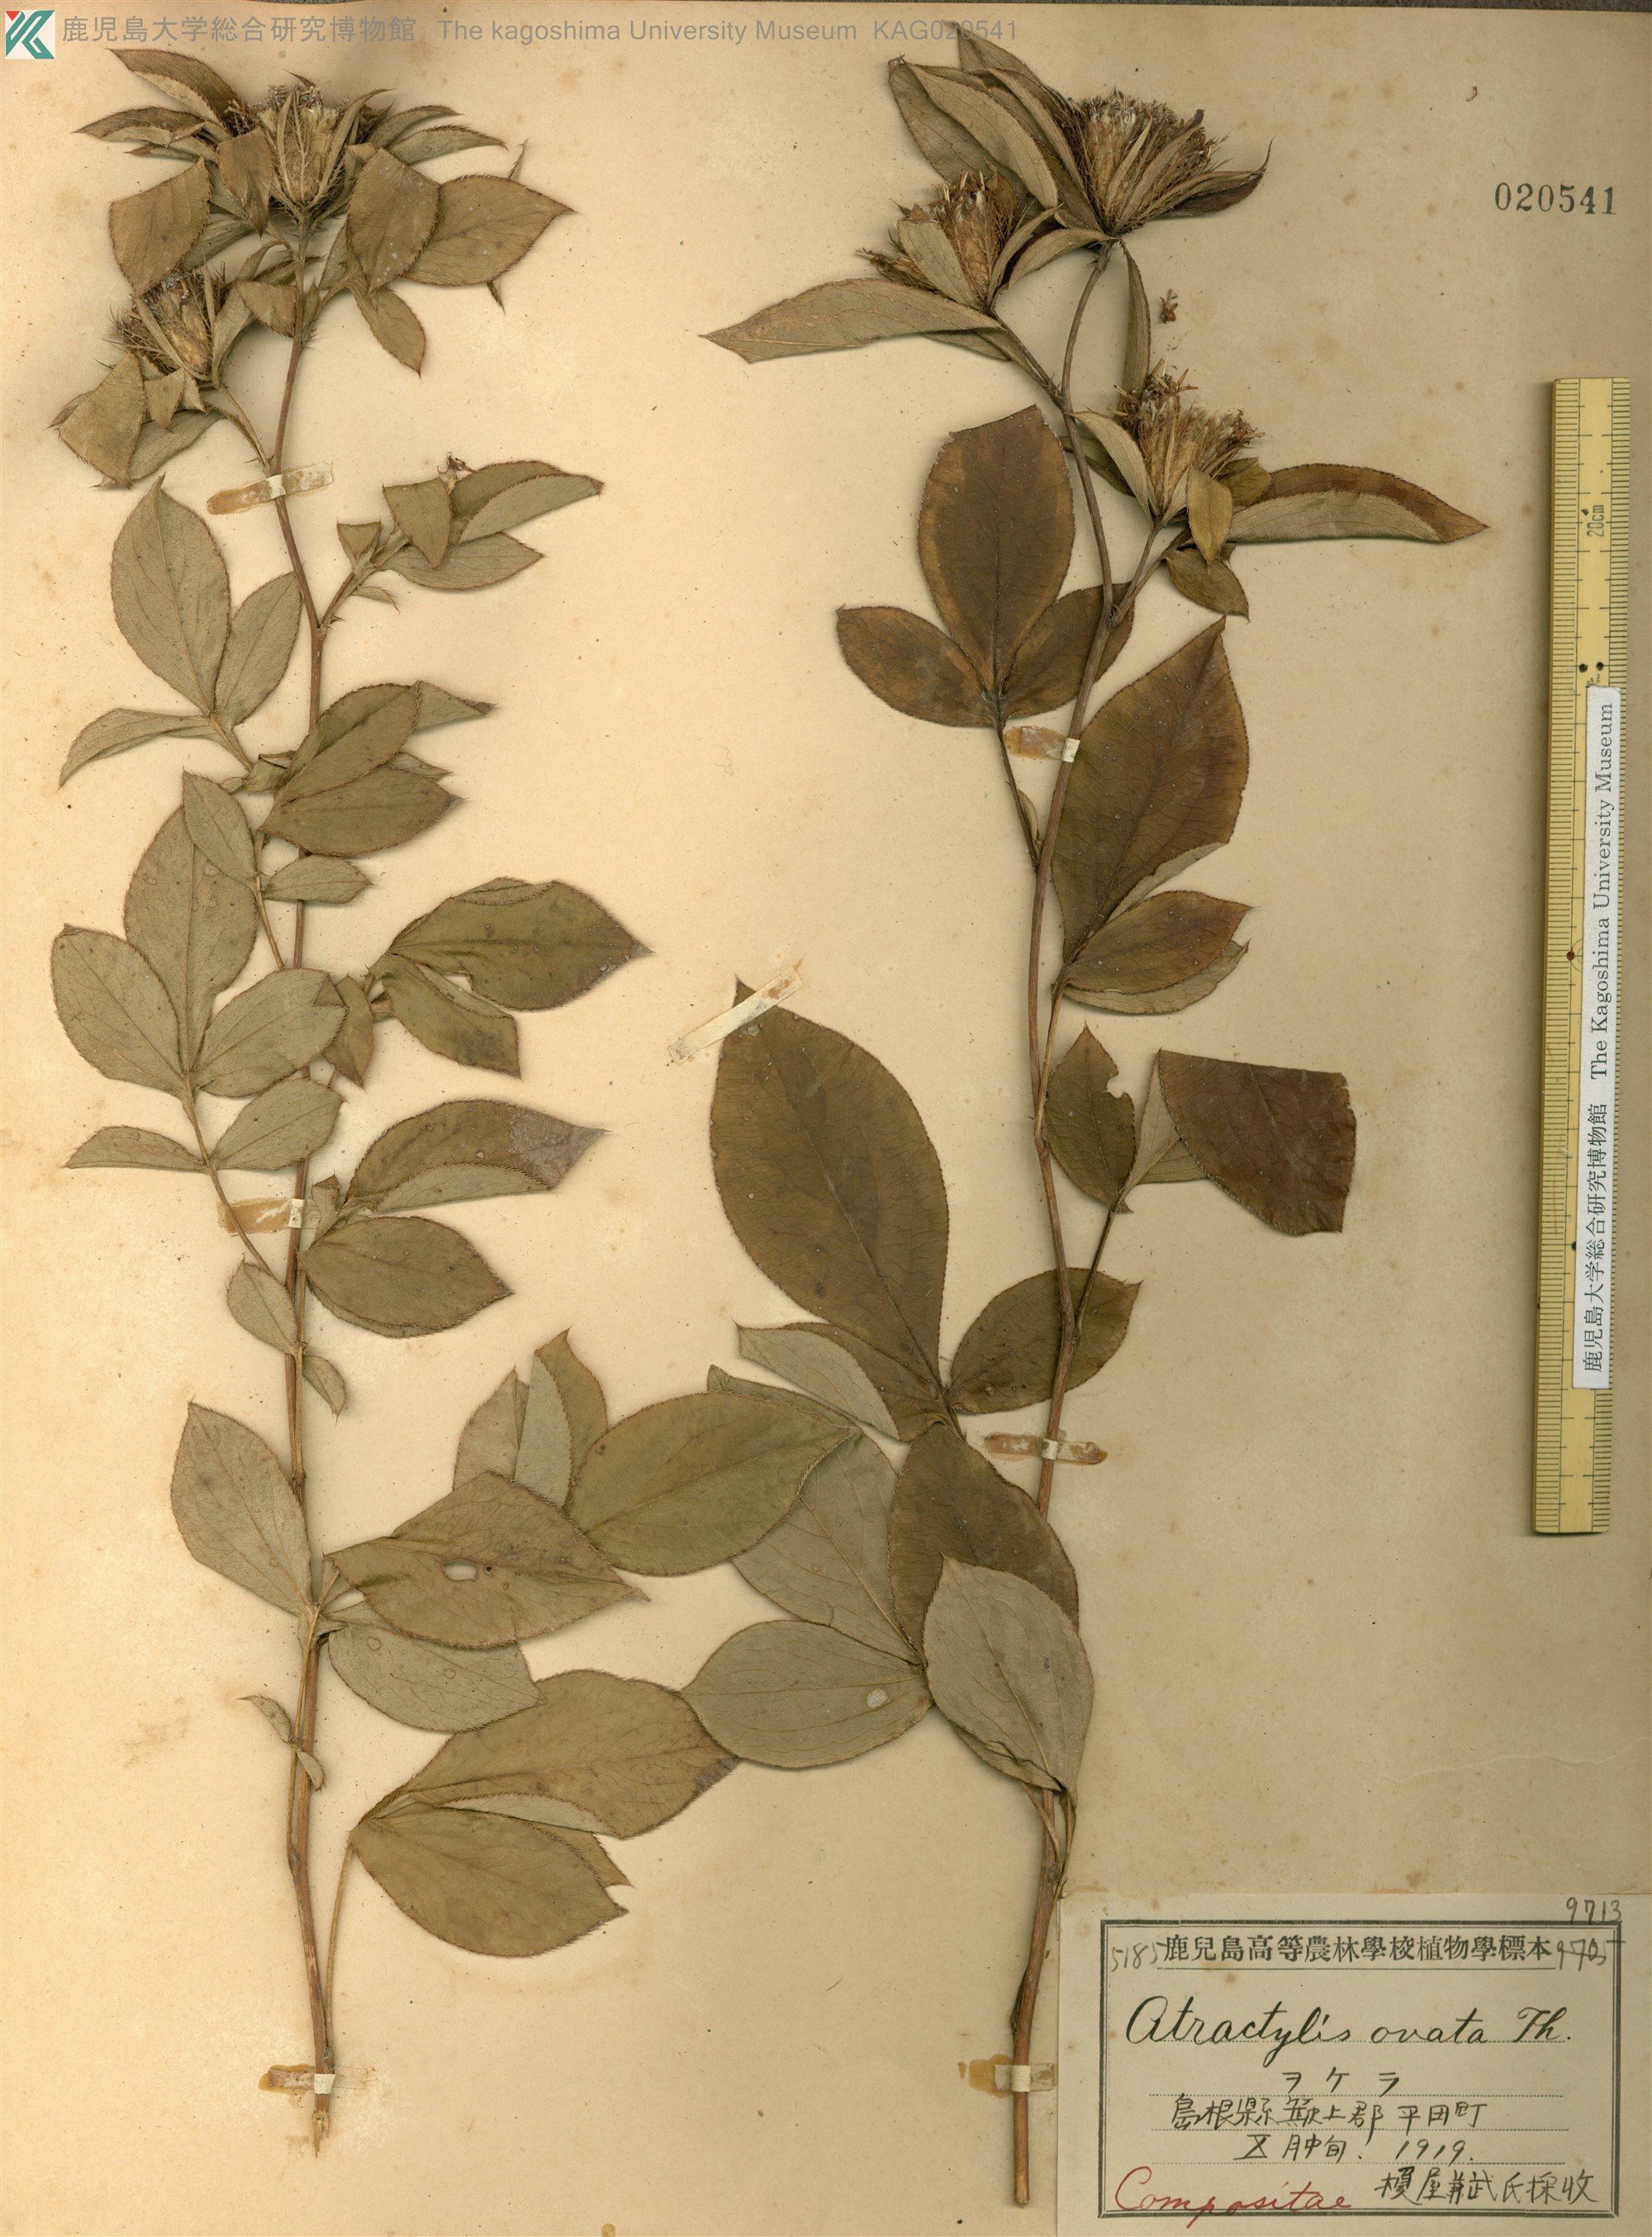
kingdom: Plantae
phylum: Tracheophyta
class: Magnoliopsida
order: Asterales
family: Asteraceae
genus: Atractylodes
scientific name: Atractylodes lancea
